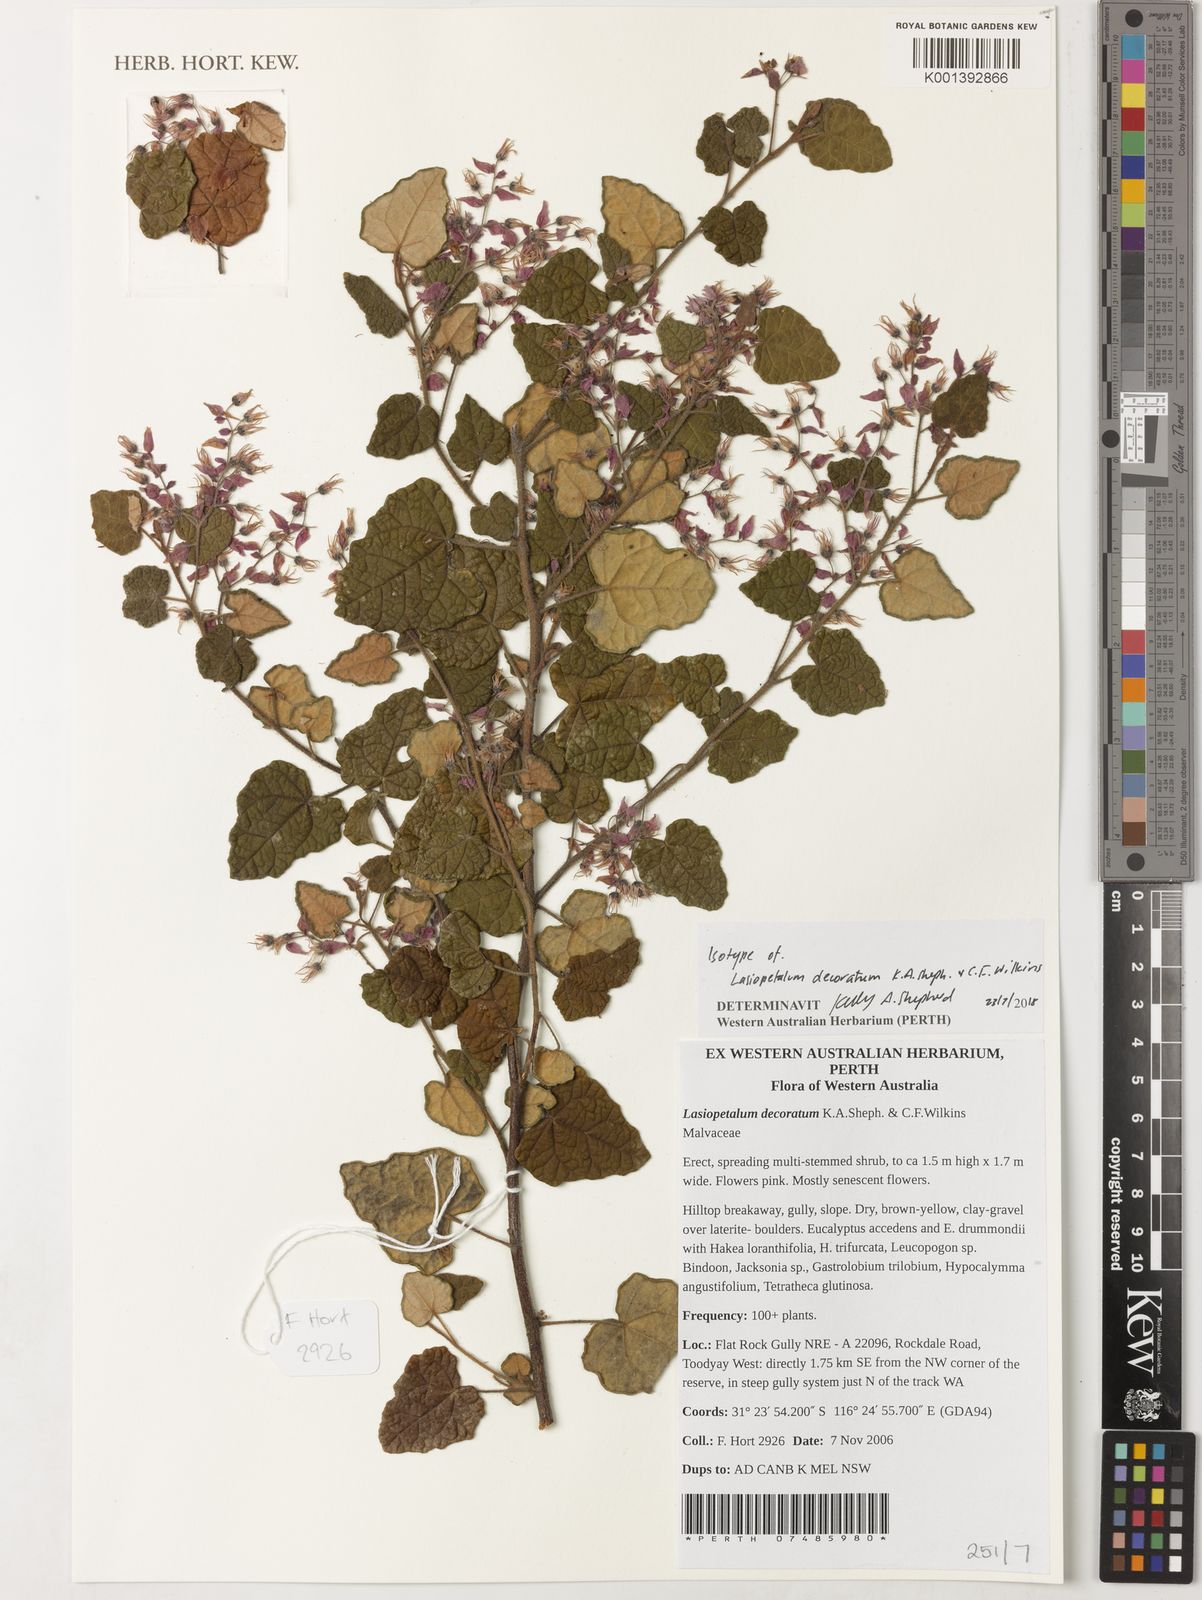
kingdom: Plantae
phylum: Tracheophyta
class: Magnoliopsida
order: Malvales
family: Malvaceae
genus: Lasiopetalum
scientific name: Lasiopetalum decoratum
